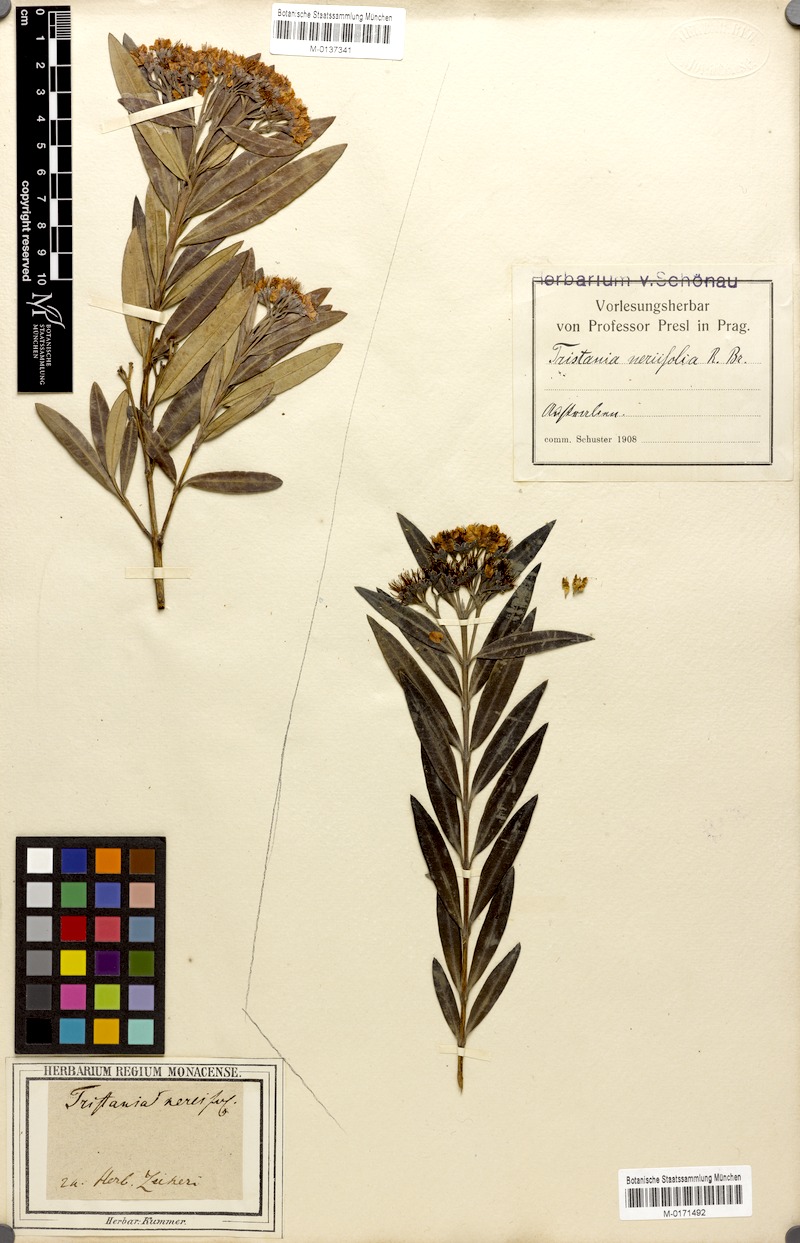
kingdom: Plantae
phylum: Tracheophyta
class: Magnoliopsida
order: Myrtales
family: Myrtaceae
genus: Tristania
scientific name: Tristania neriifolia
